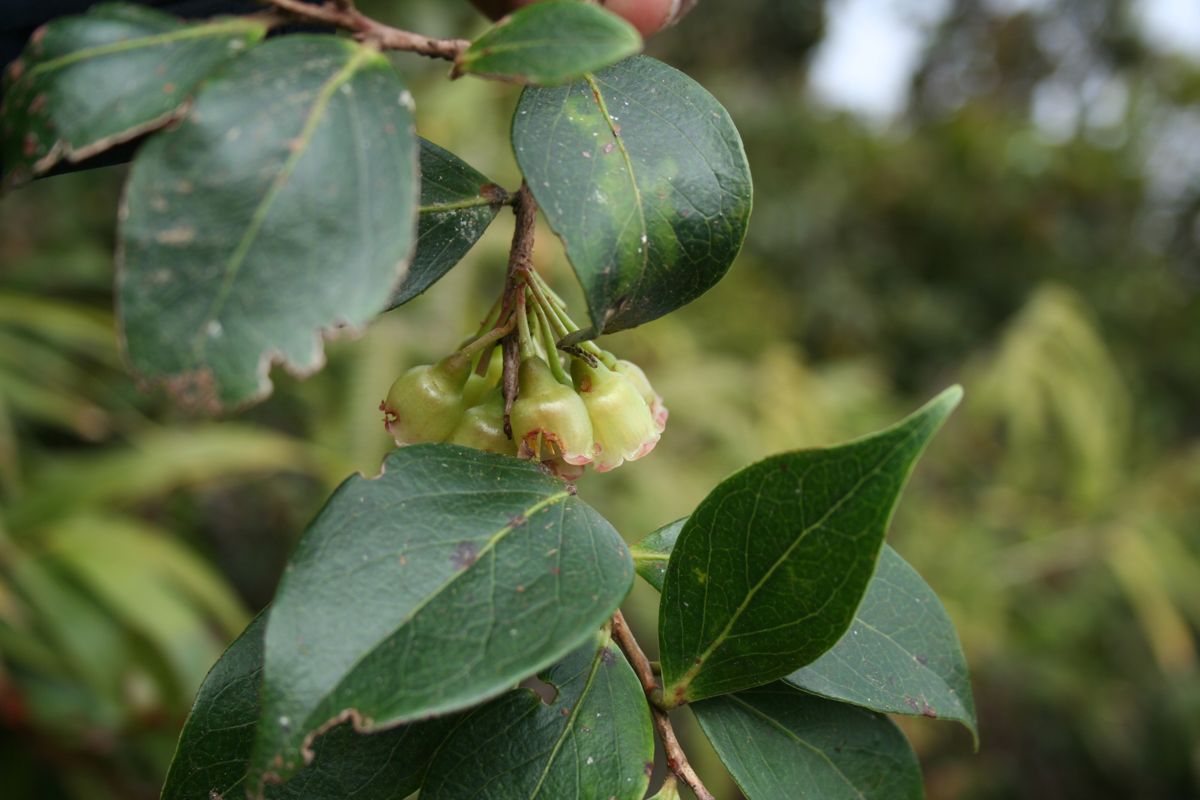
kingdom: Plantae
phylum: Tracheophyta
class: Magnoliopsida
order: Ericales
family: Ericaceae
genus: Symphysia
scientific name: Symphysia poasana
